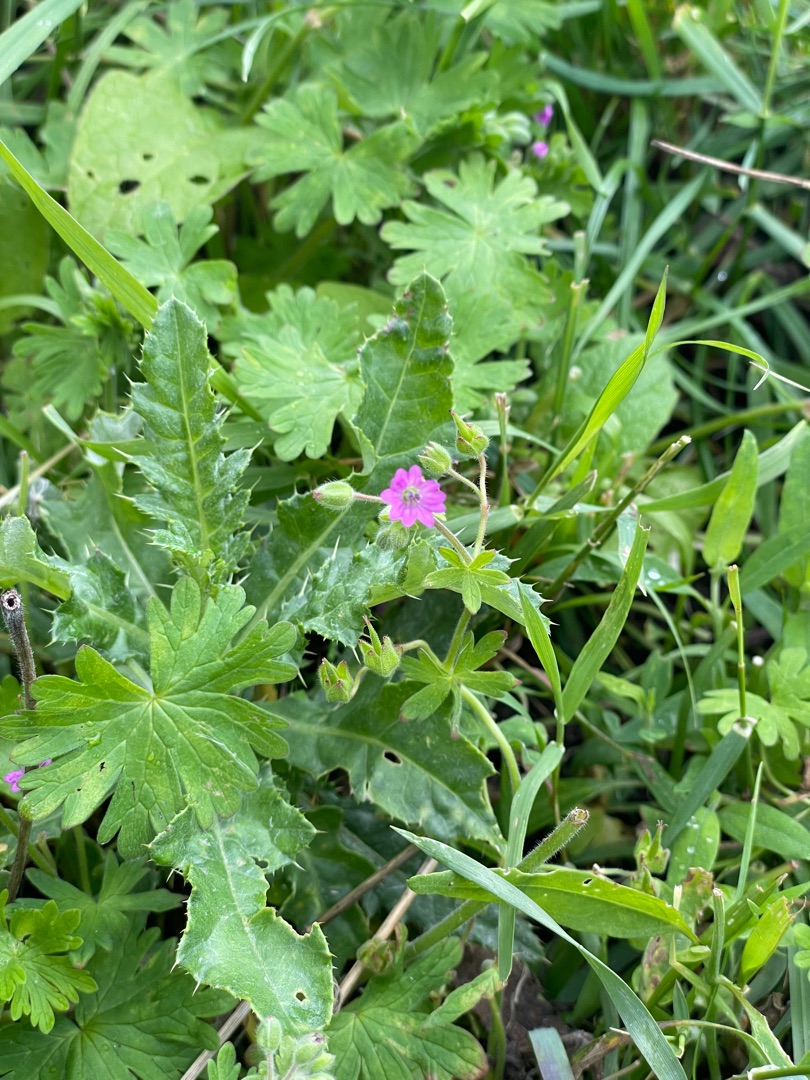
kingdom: Plantae
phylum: Tracheophyta
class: Magnoliopsida
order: Geraniales
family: Geraniaceae
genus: Geranium
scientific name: Geranium molle
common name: Blød storkenæb
